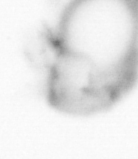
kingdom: Animalia
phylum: Annelida
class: Polychaeta
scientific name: Polychaeta
